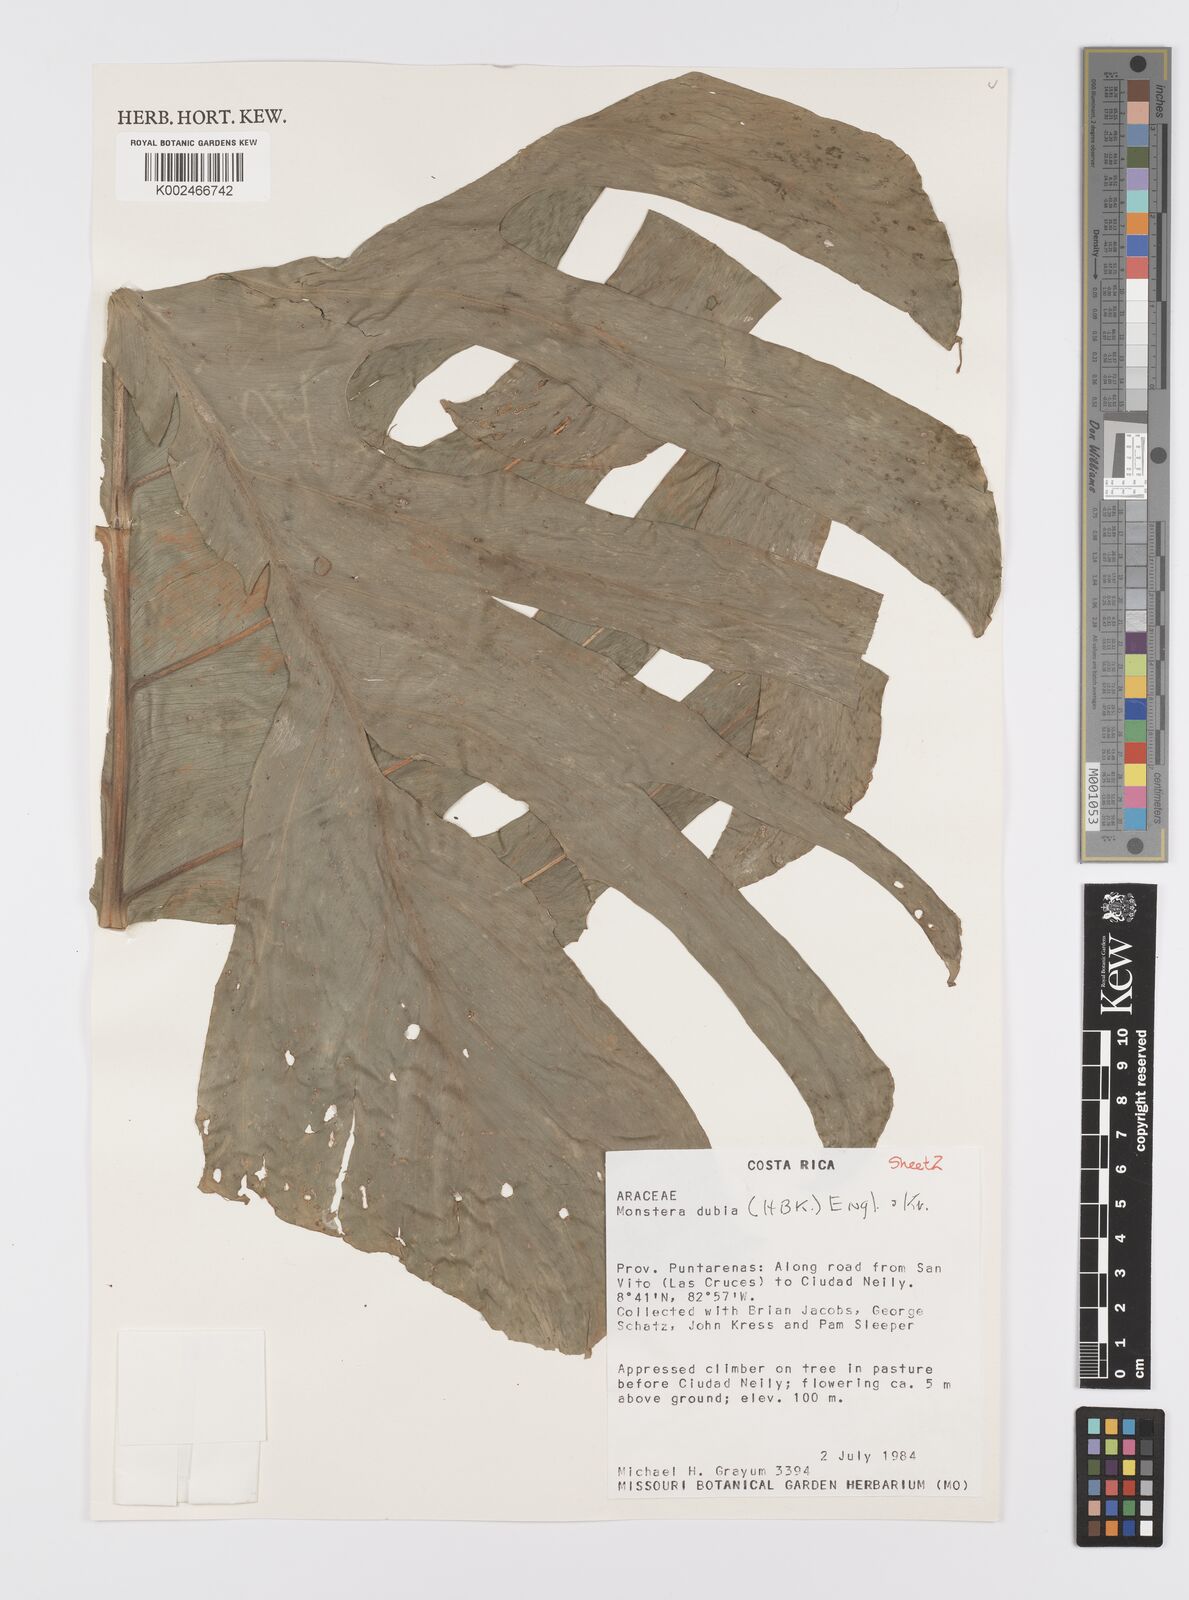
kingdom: Plantae
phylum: Tracheophyta
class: Liliopsida
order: Alismatales
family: Araceae
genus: Monstera
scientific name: Monstera dubia
